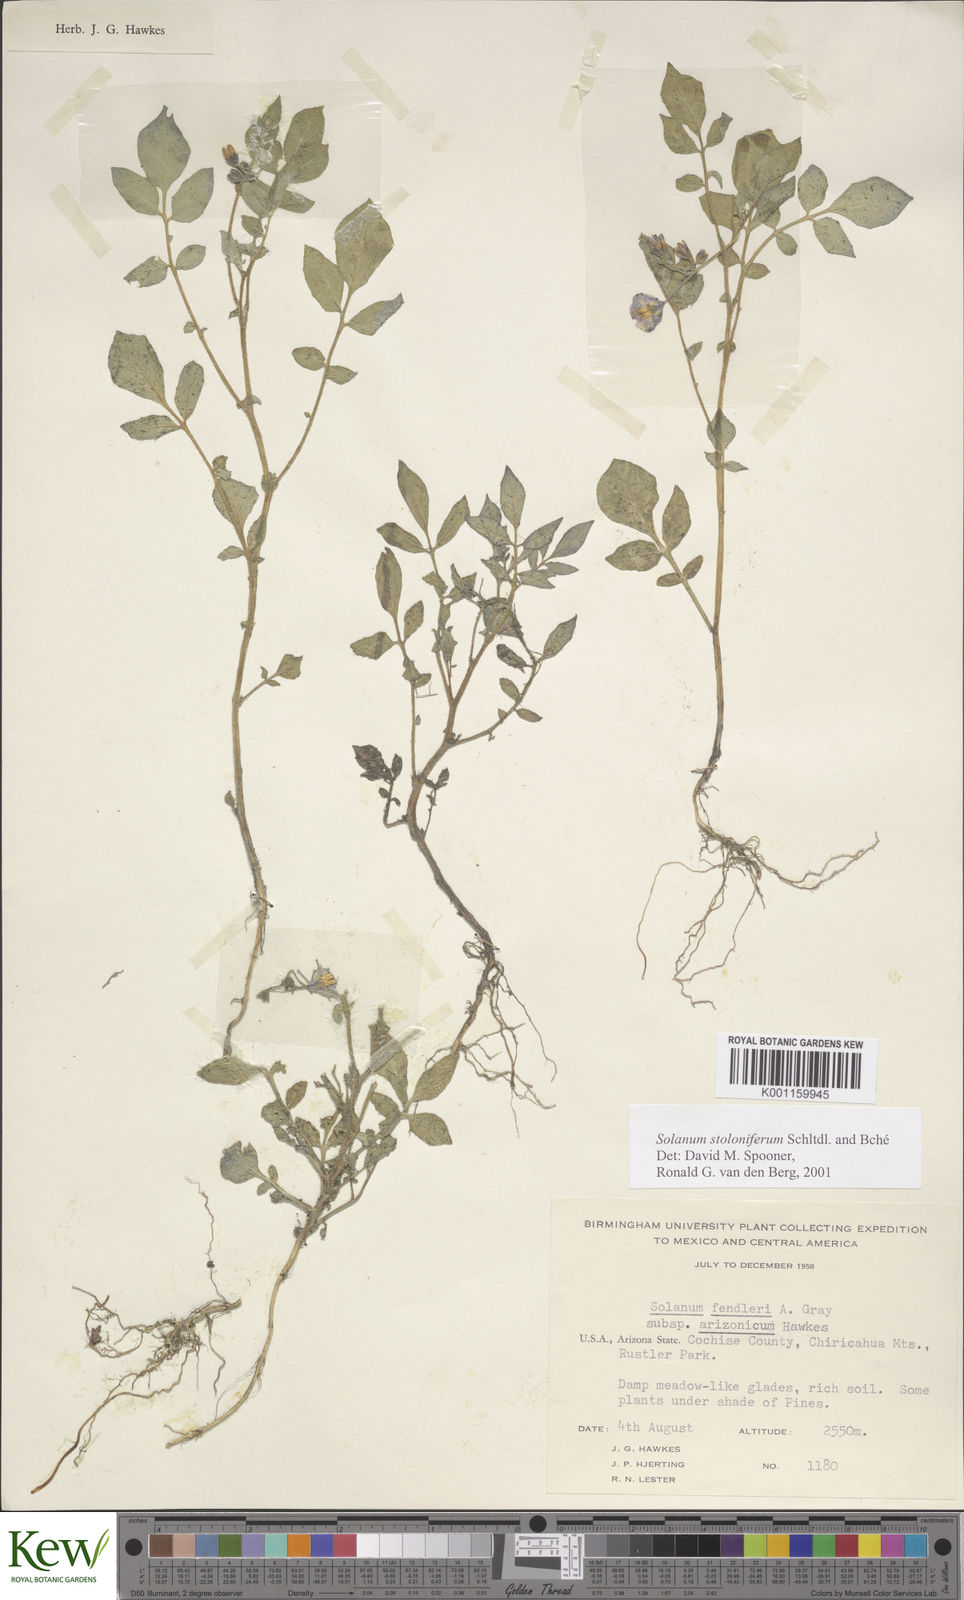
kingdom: Plantae
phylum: Tracheophyta
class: Magnoliopsida
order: Solanales
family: Solanaceae
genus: Solanum
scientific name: Solanum stoloniferum
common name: Fendler's nighshade
